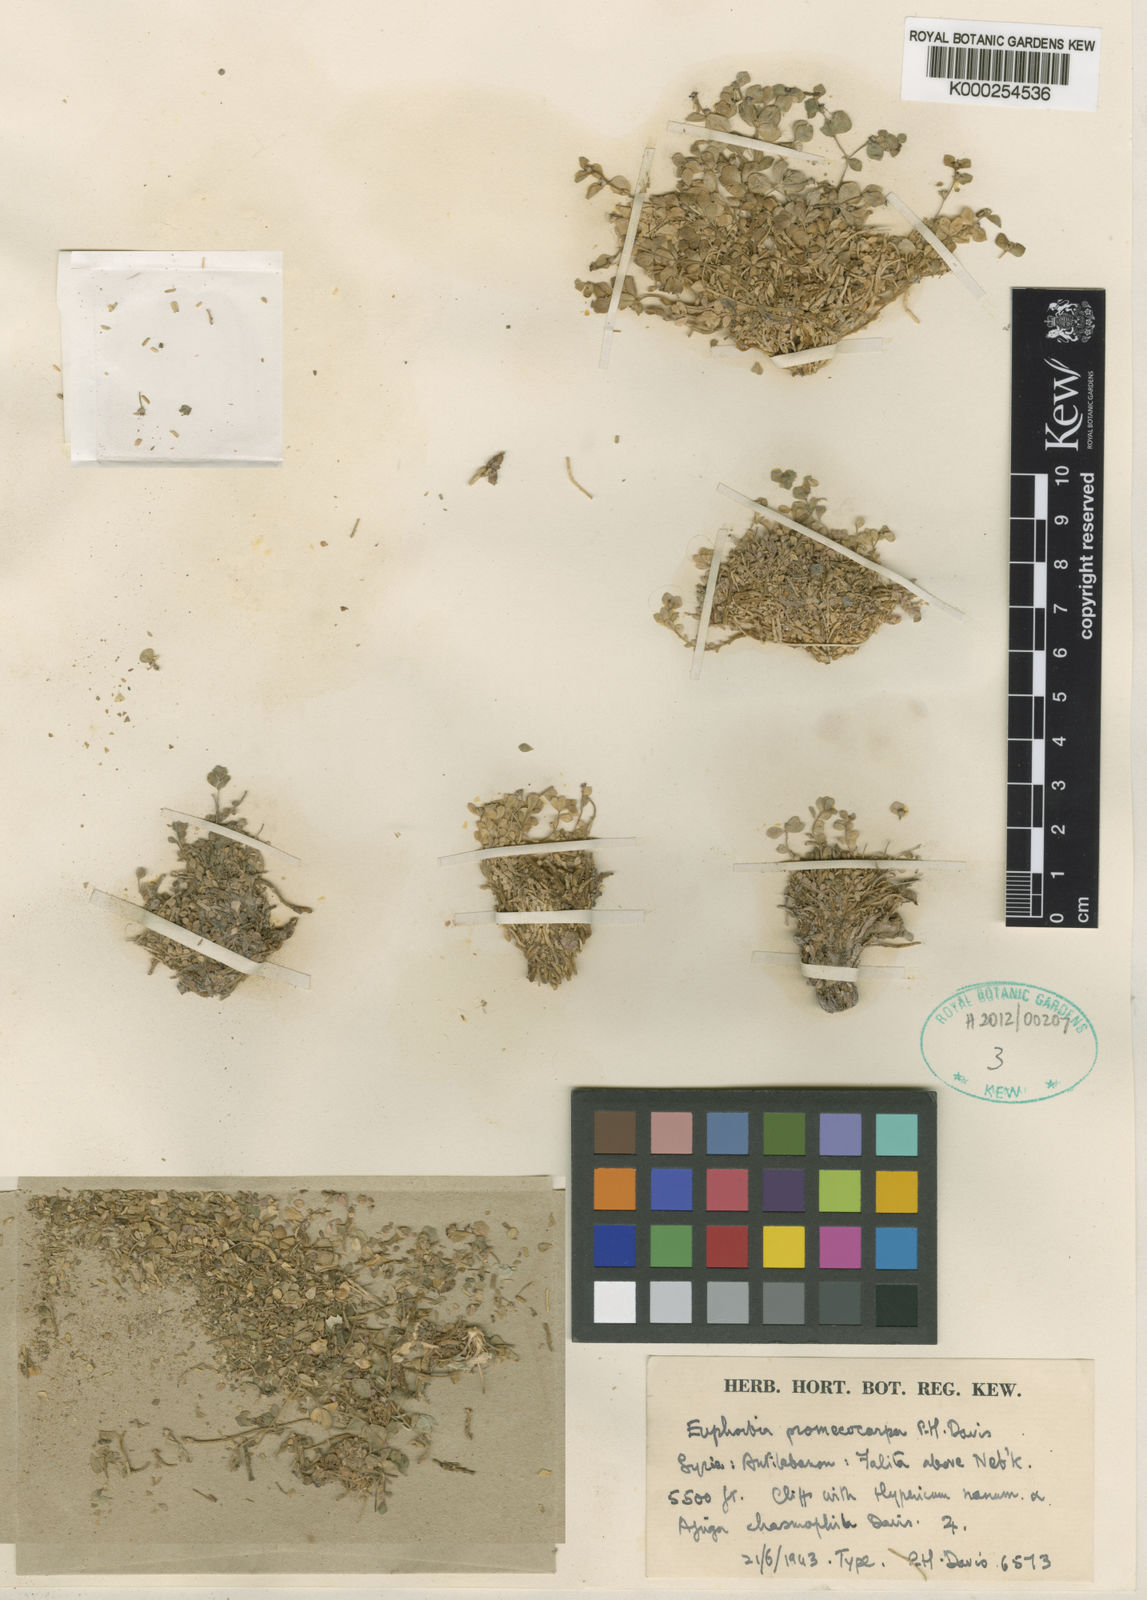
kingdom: Plantae
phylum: Tracheophyta
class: Magnoliopsida
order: Malpighiales
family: Euphorbiaceae
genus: Euphorbia
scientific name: Euphorbia promecocarpa
